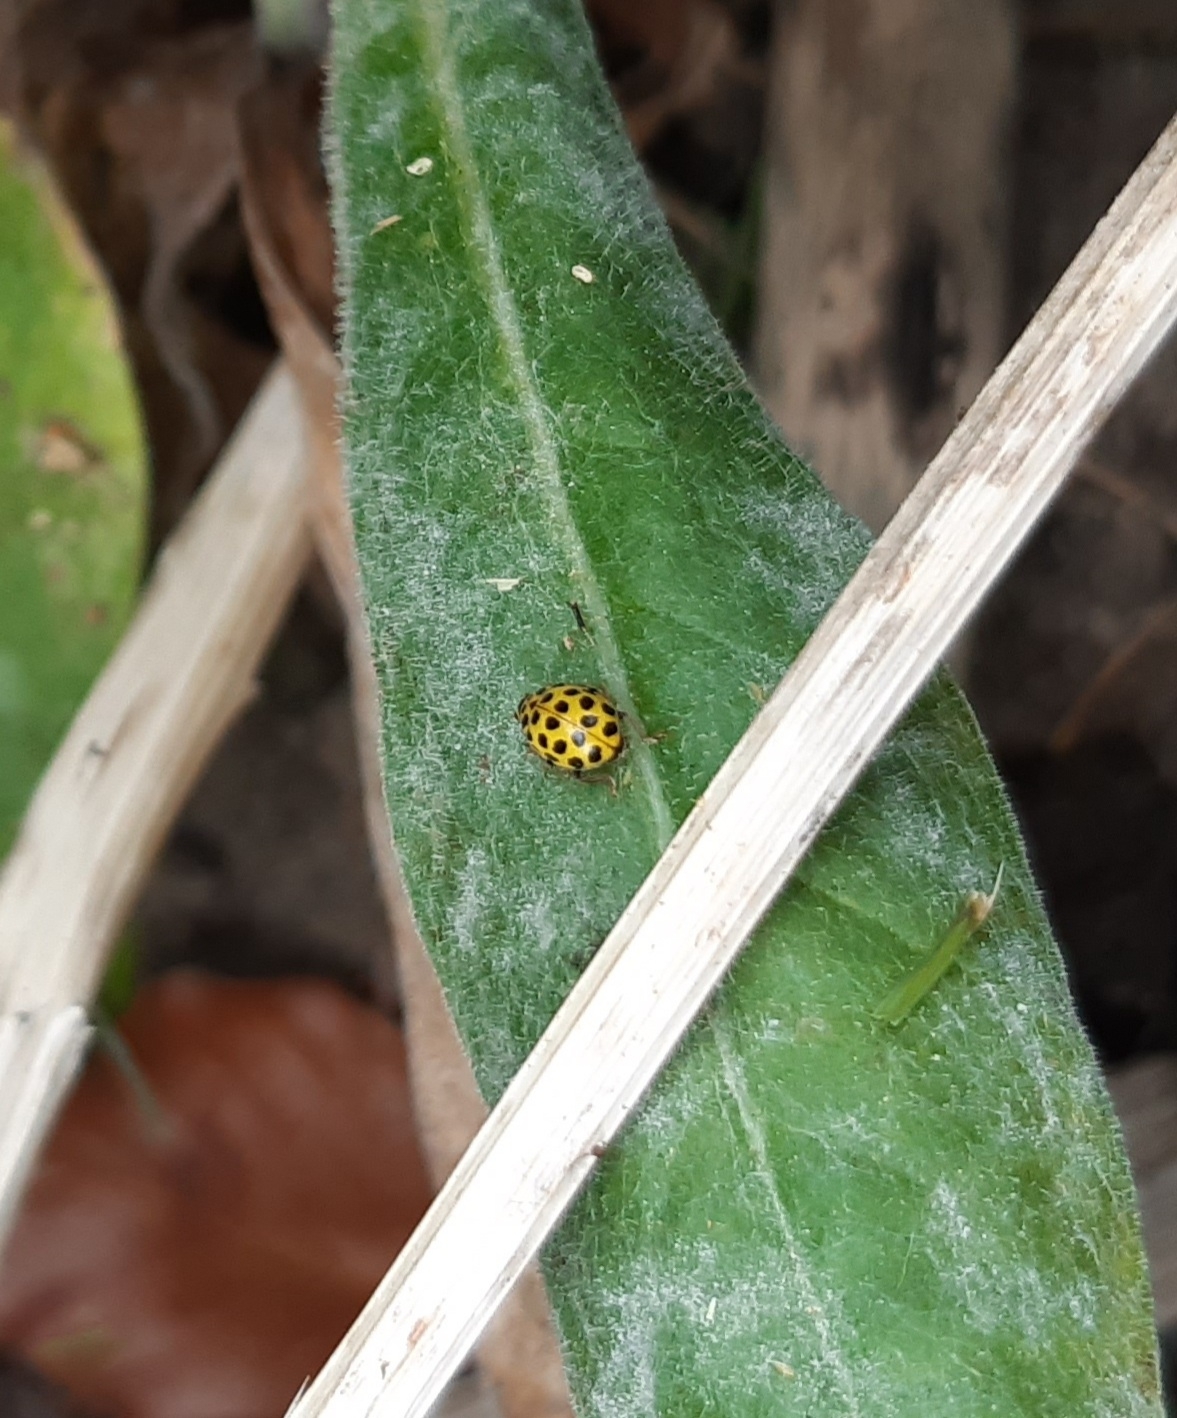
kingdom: Animalia
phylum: Arthropoda
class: Insecta
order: Coleoptera
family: Coccinellidae
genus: Psyllobora
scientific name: Psyllobora vigintiduopunctata
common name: Toogtyveplettet mariehøne
